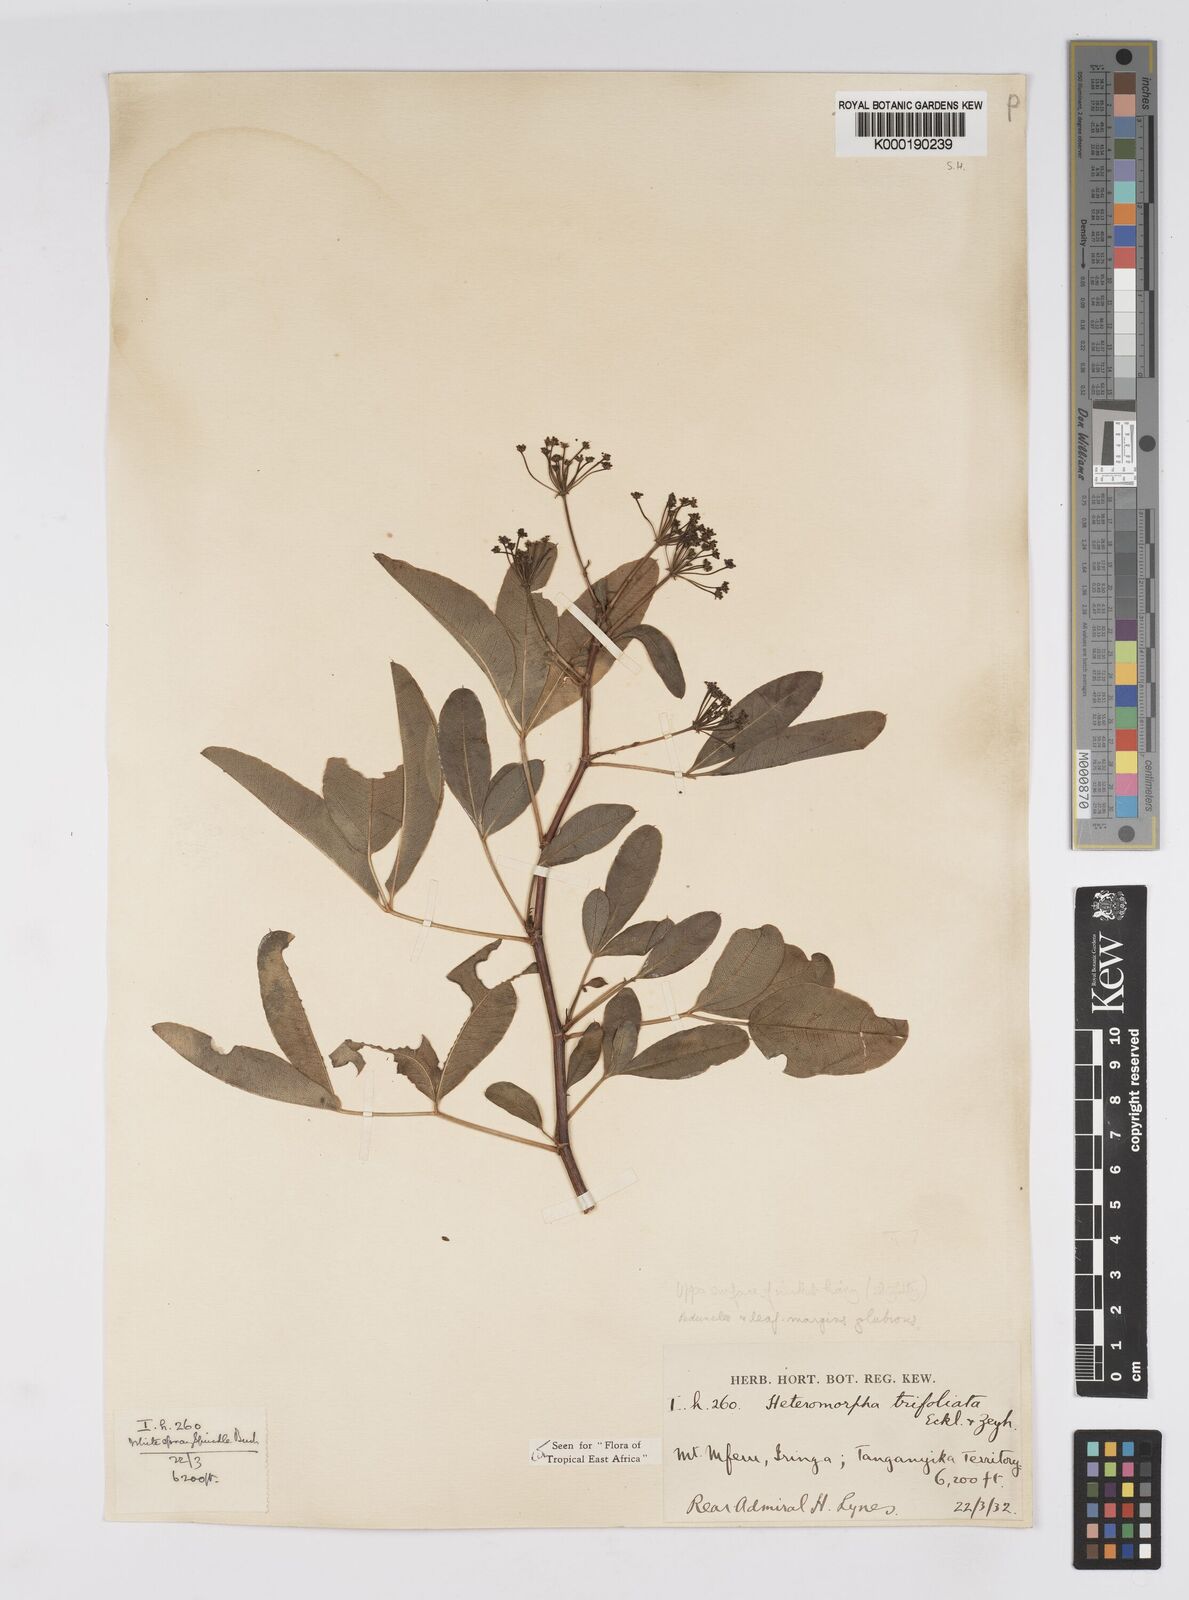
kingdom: Plantae
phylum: Tracheophyta
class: Magnoliopsida
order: Apiales
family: Apiaceae
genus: Heteromorpha
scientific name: Heteromorpha arborescens
